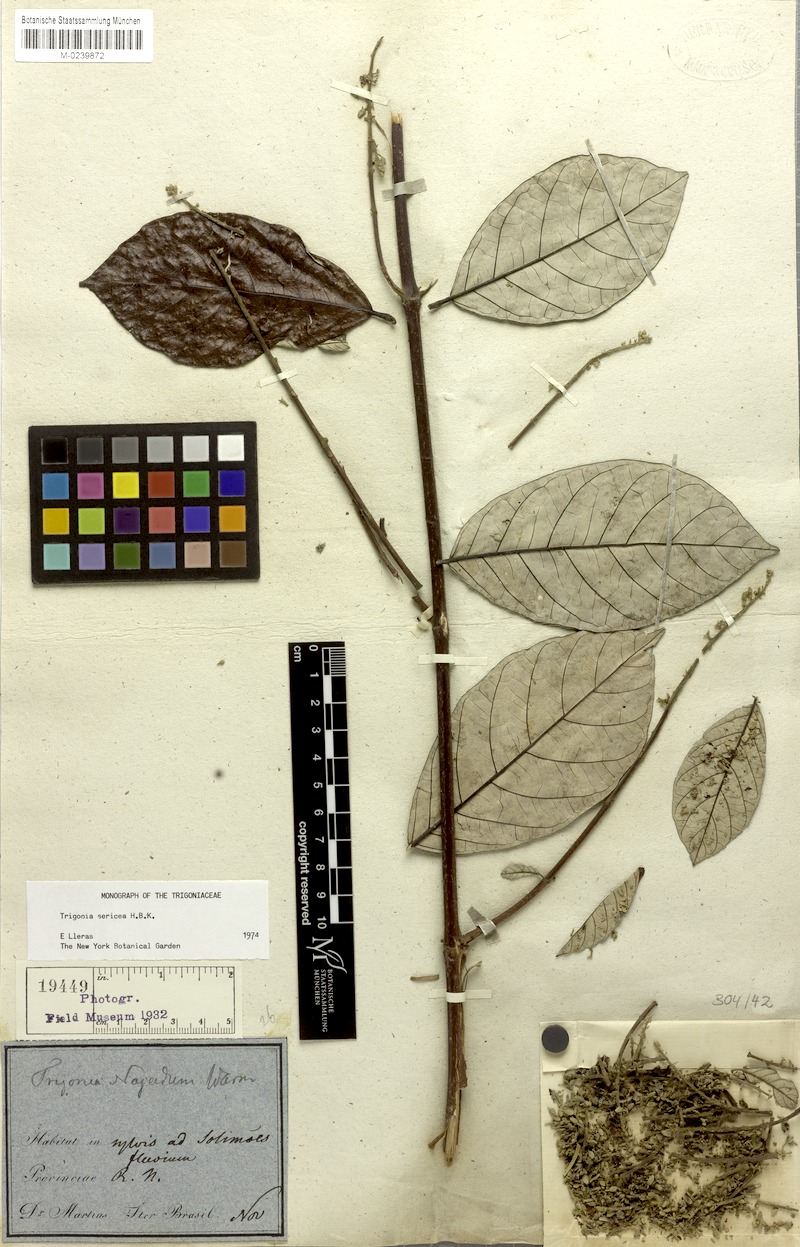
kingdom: Plantae
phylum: Tracheophyta
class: Magnoliopsida
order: Malpighiales
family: Trigoniaceae
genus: Trigonia
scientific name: Trigonia sericea
